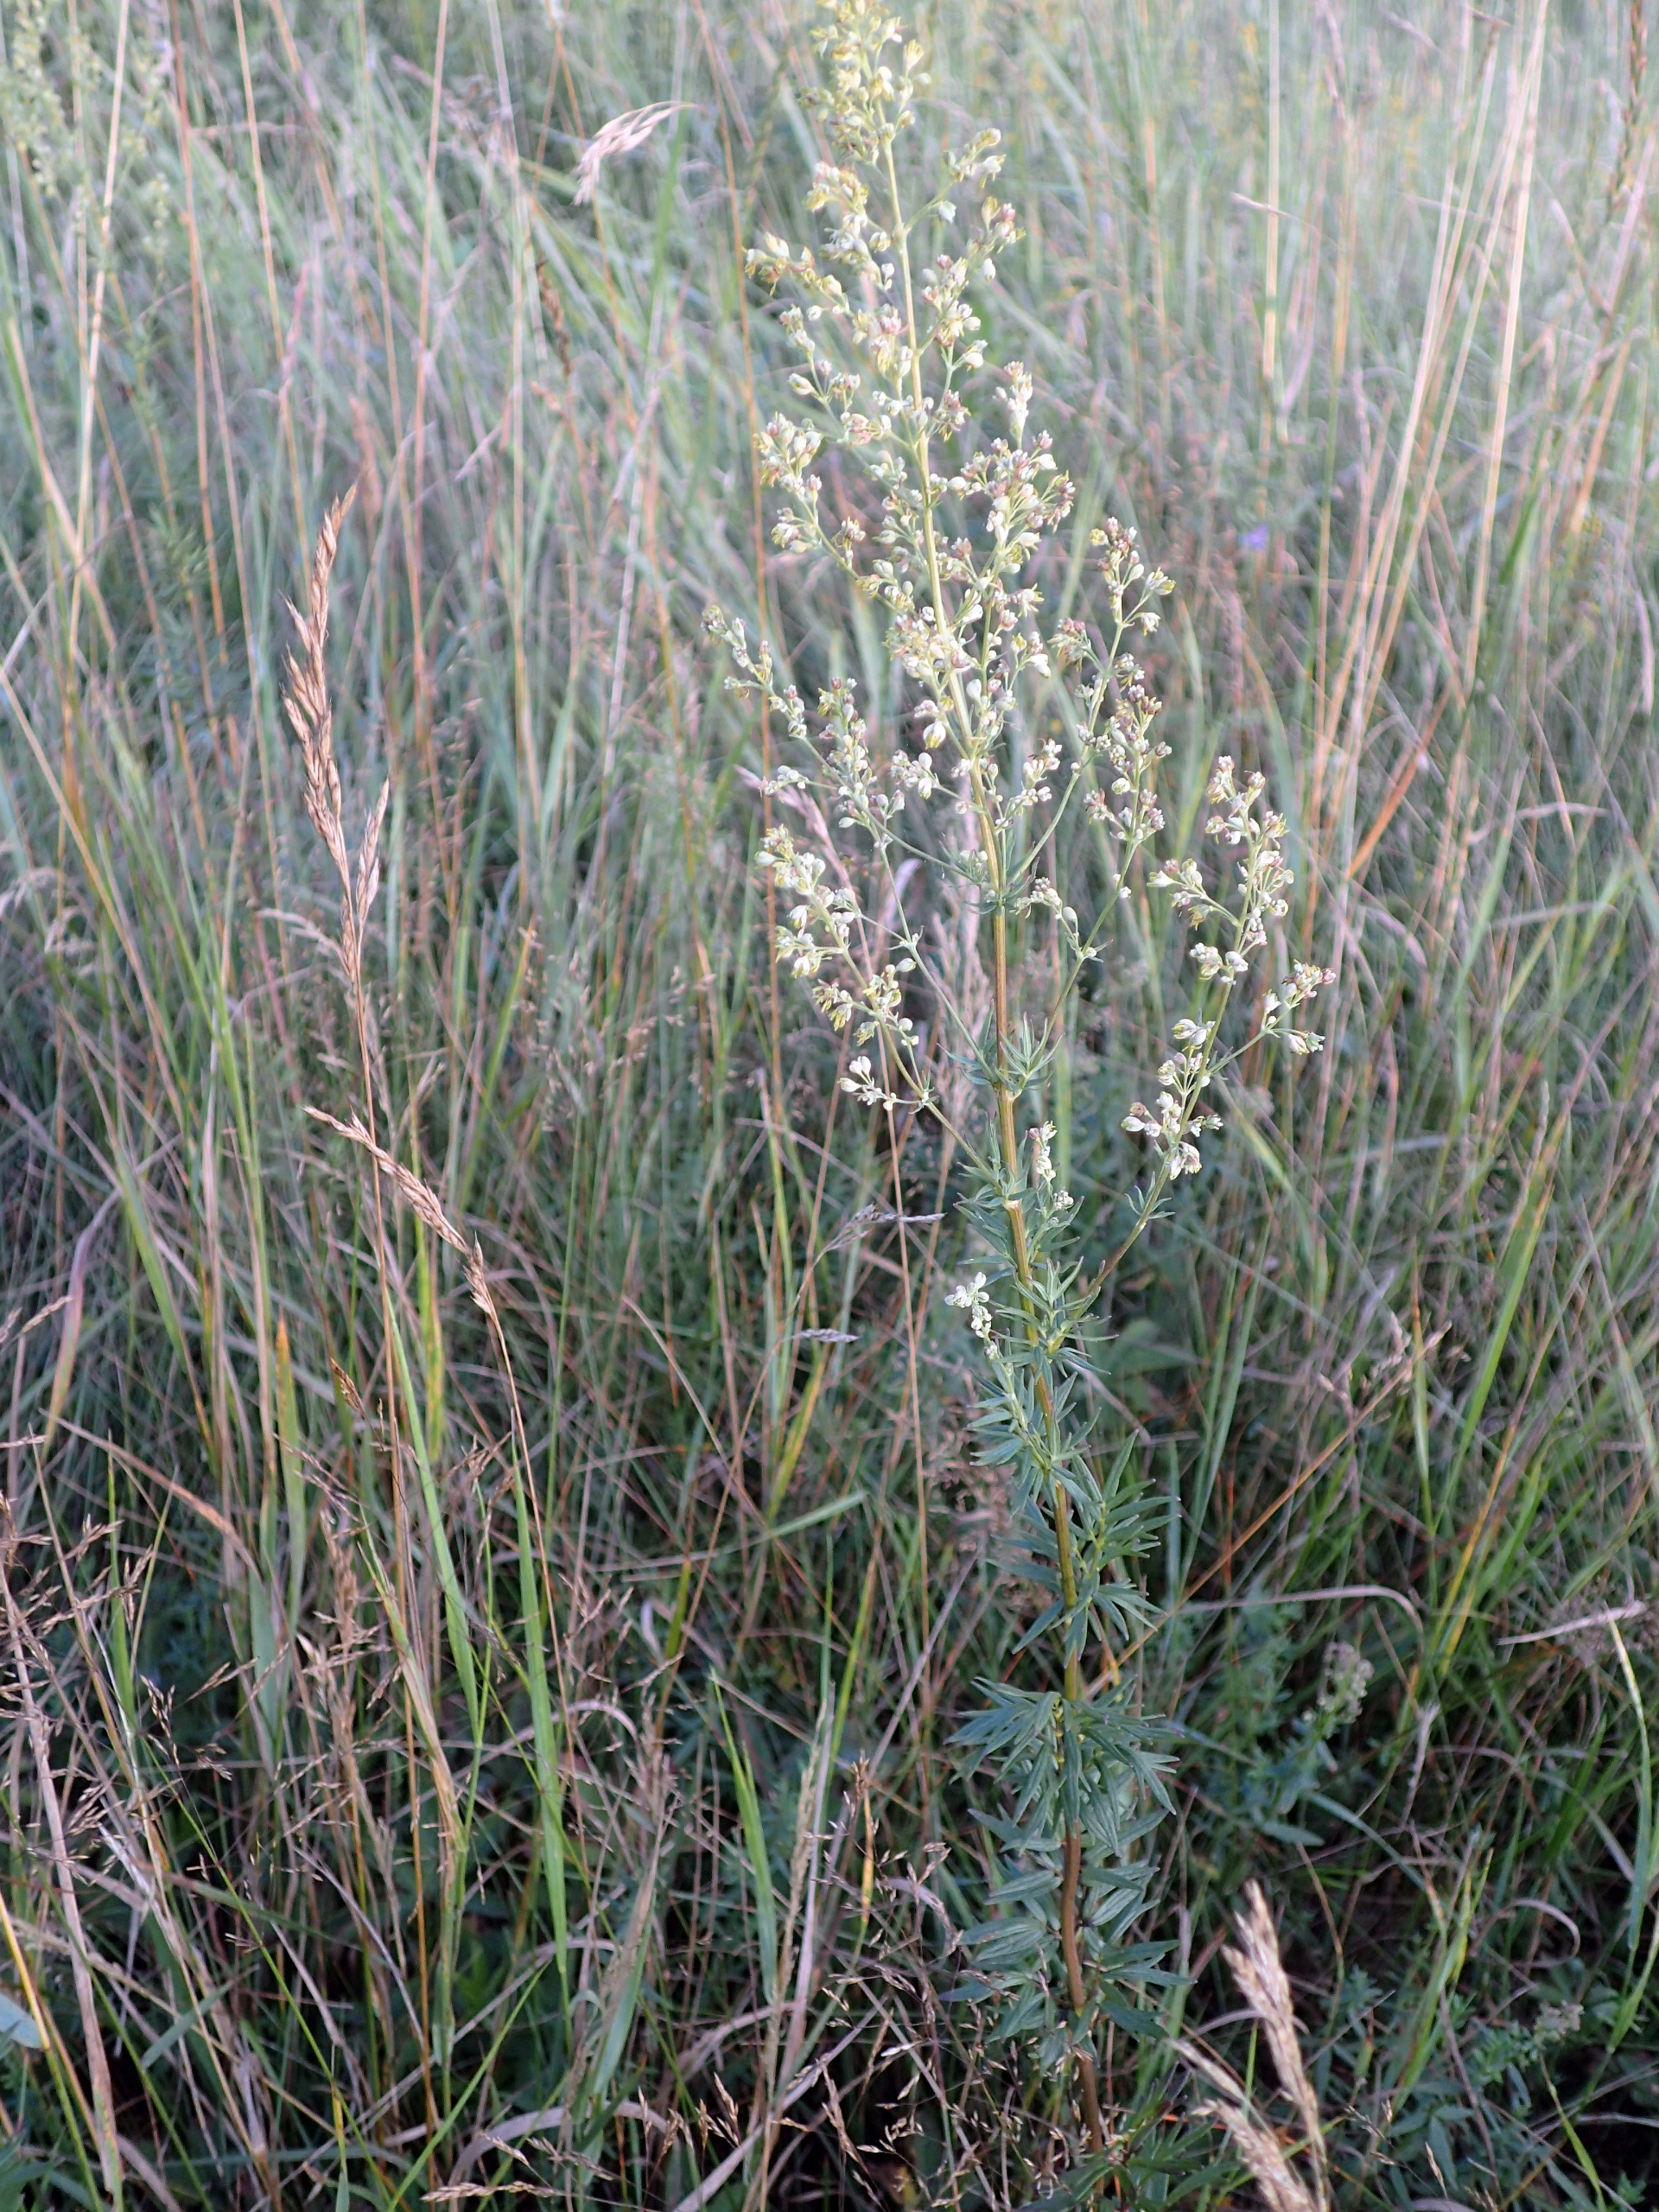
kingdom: Plantae
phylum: Tracheophyta
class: Magnoliopsida
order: Ranunculales
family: Ranunculaceae
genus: Thalictrum
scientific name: Thalictrum simplex
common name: Rank frøstjerne
